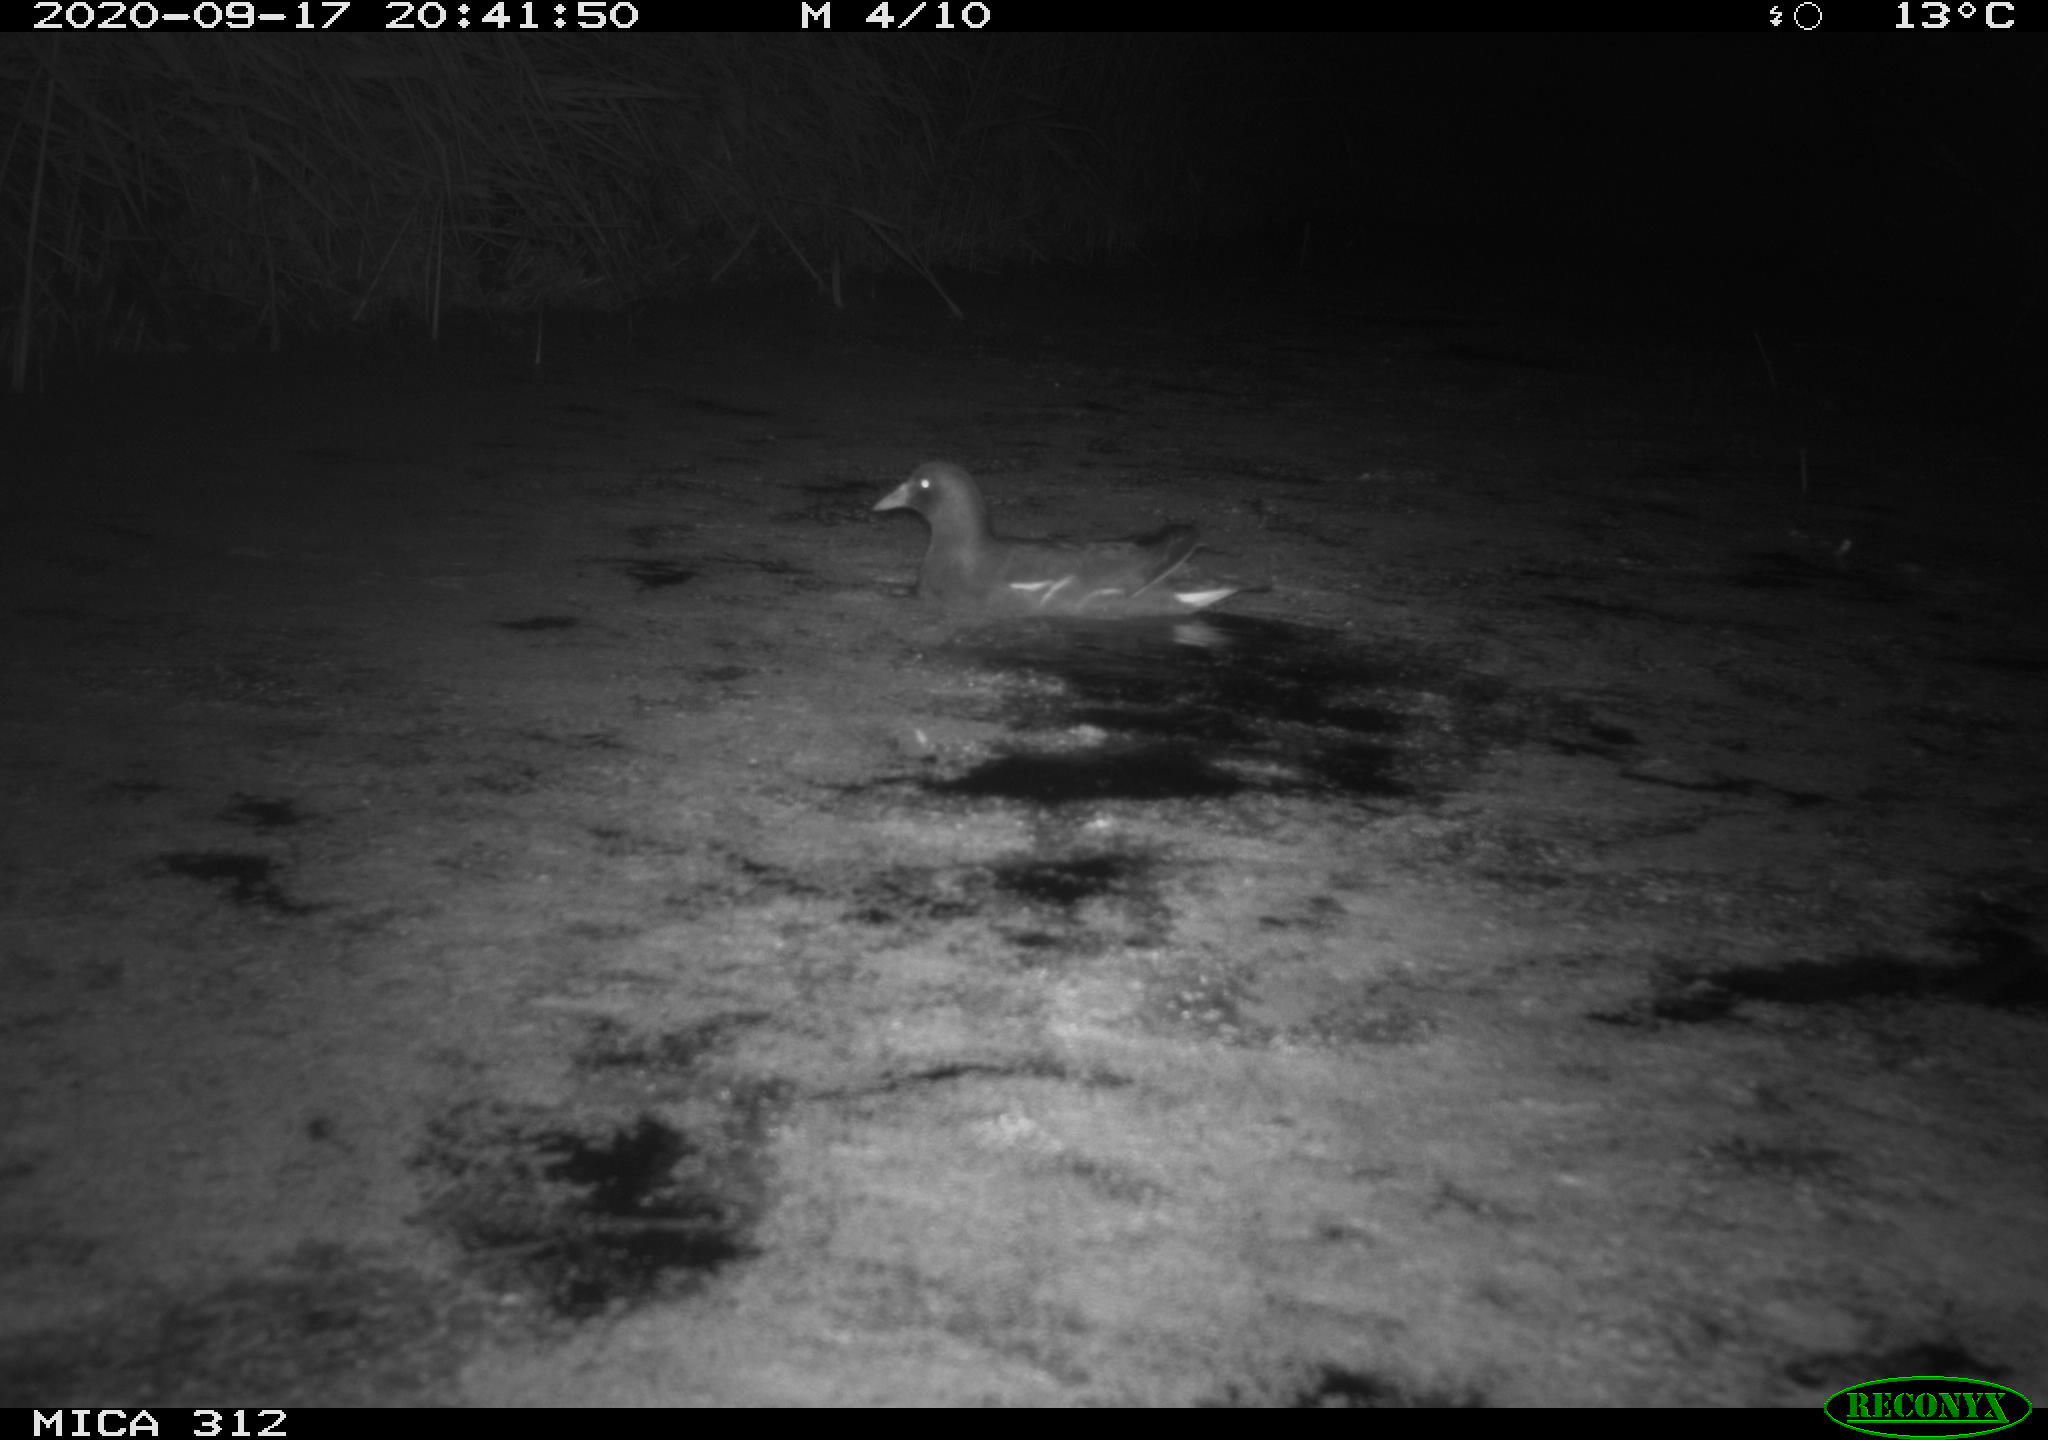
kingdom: Animalia
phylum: Chordata
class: Aves
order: Gruiformes
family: Rallidae
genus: Gallinula
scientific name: Gallinula chloropus
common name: Common moorhen
